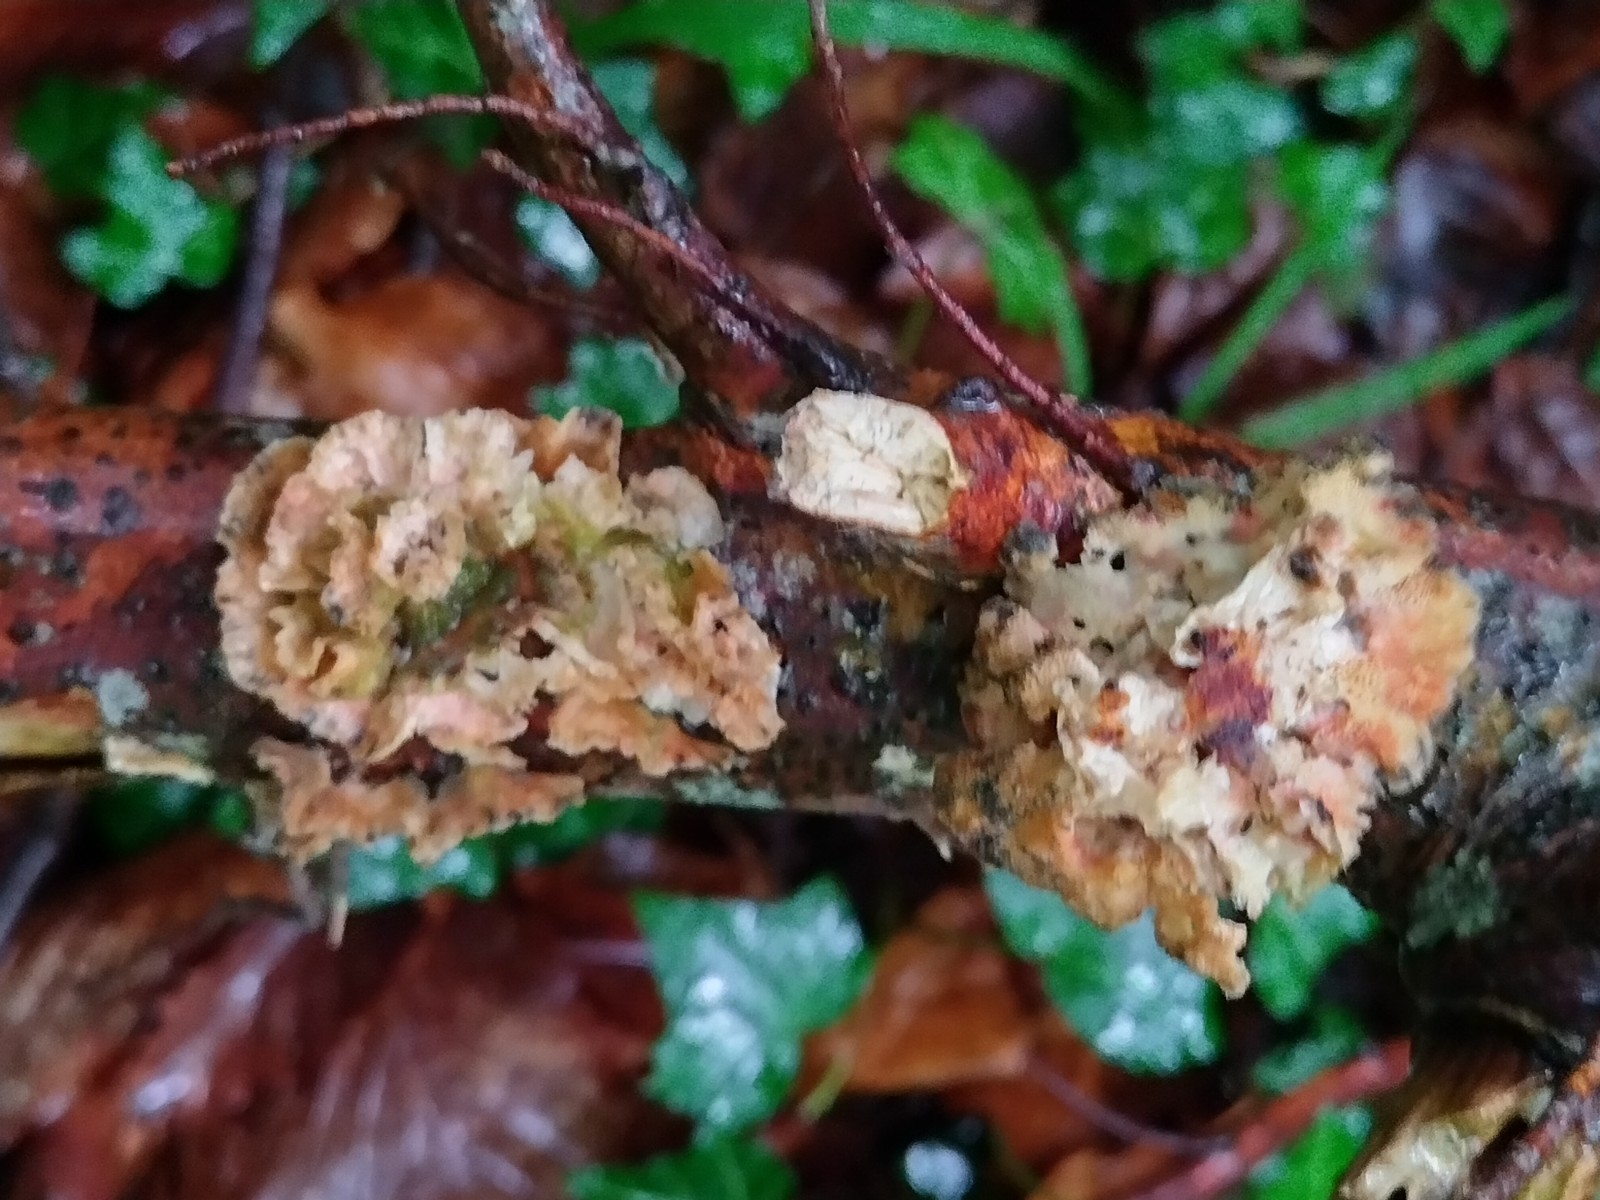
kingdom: Fungi
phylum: Basidiomycota
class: Agaricomycetes
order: Russulales
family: Stereaceae
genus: Stereum
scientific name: Stereum rugosum
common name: rynket lædersvamp
